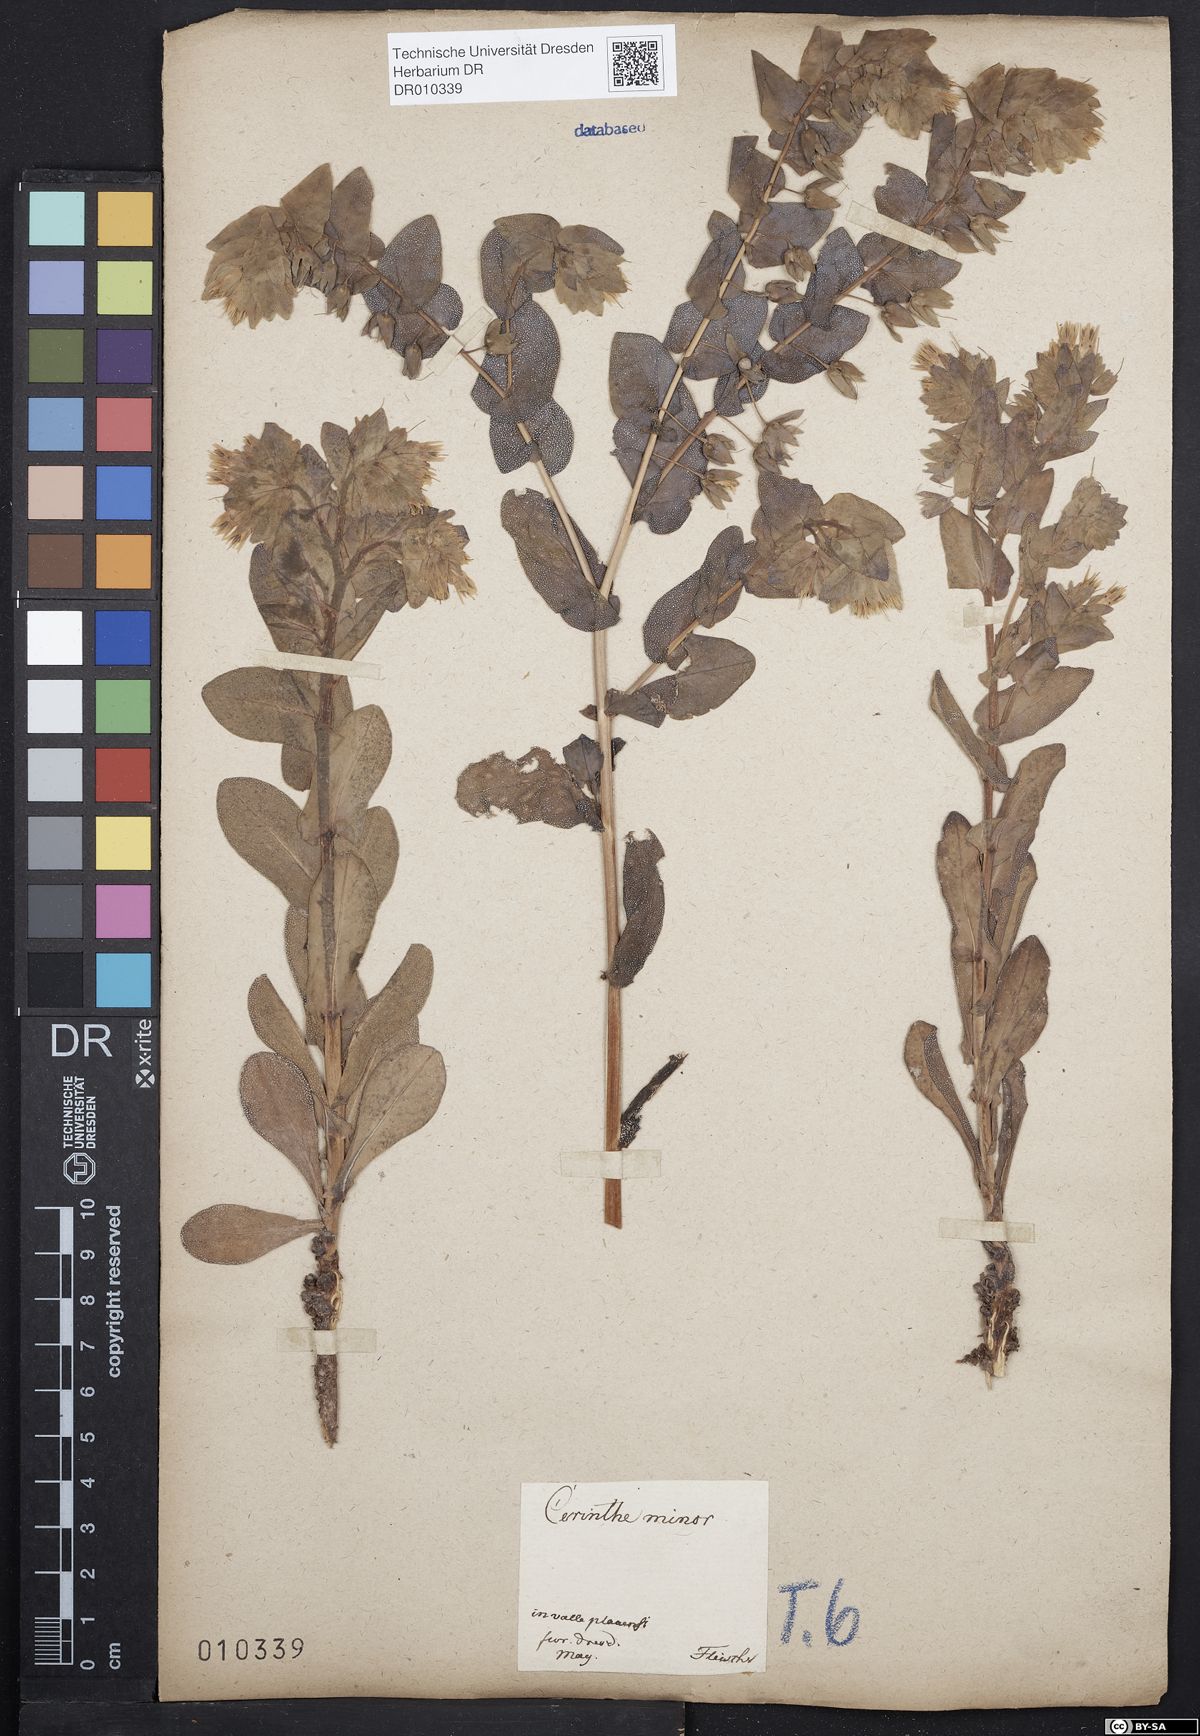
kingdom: Plantae
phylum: Tracheophyta
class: Magnoliopsida
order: Boraginales
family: Boraginaceae
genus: Cerinthe
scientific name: Cerinthe minor
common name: Lesser honeywort
